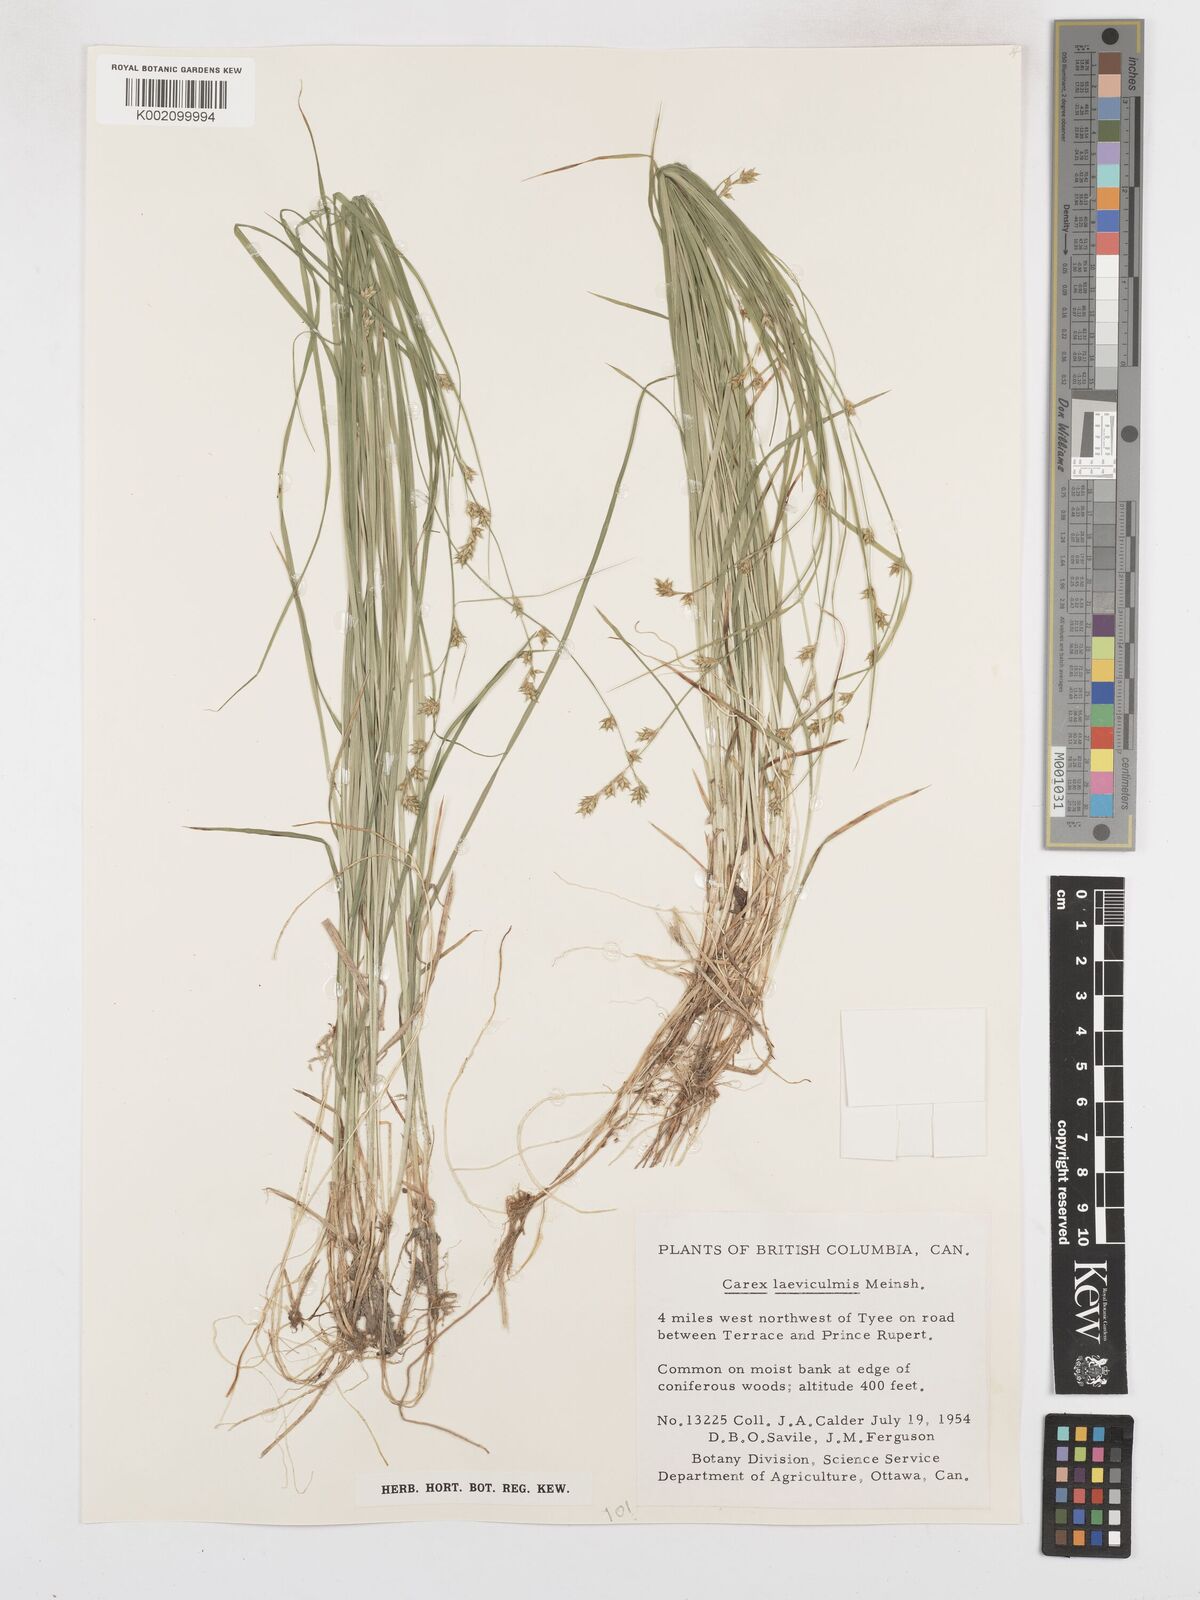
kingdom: Plantae
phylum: Tracheophyta
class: Liliopsida
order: Poales
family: Cyperaceae
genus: Carex
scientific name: Carex laeviculmis
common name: Smooth sedge
